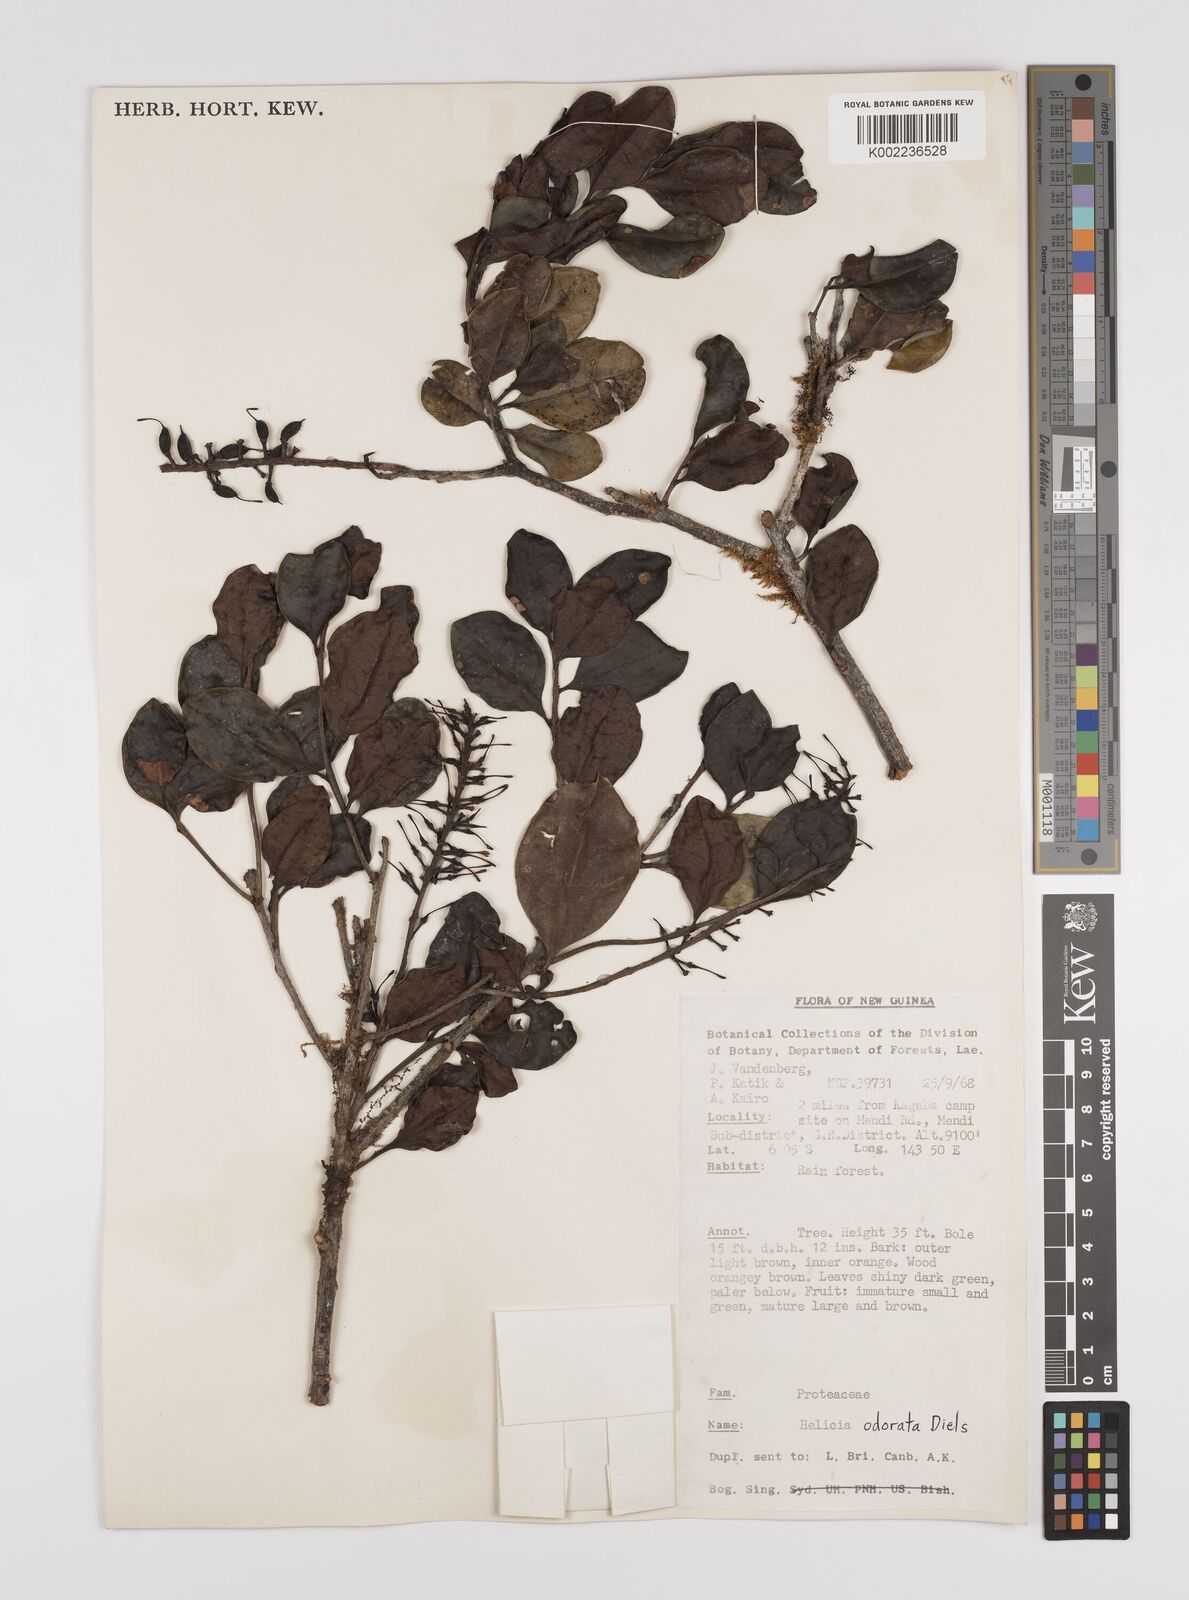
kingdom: Plantae
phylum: Tracheophyta
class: Magnoliopsida
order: Proteales
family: Proteaceae
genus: Helicia
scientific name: Helicia odorata
